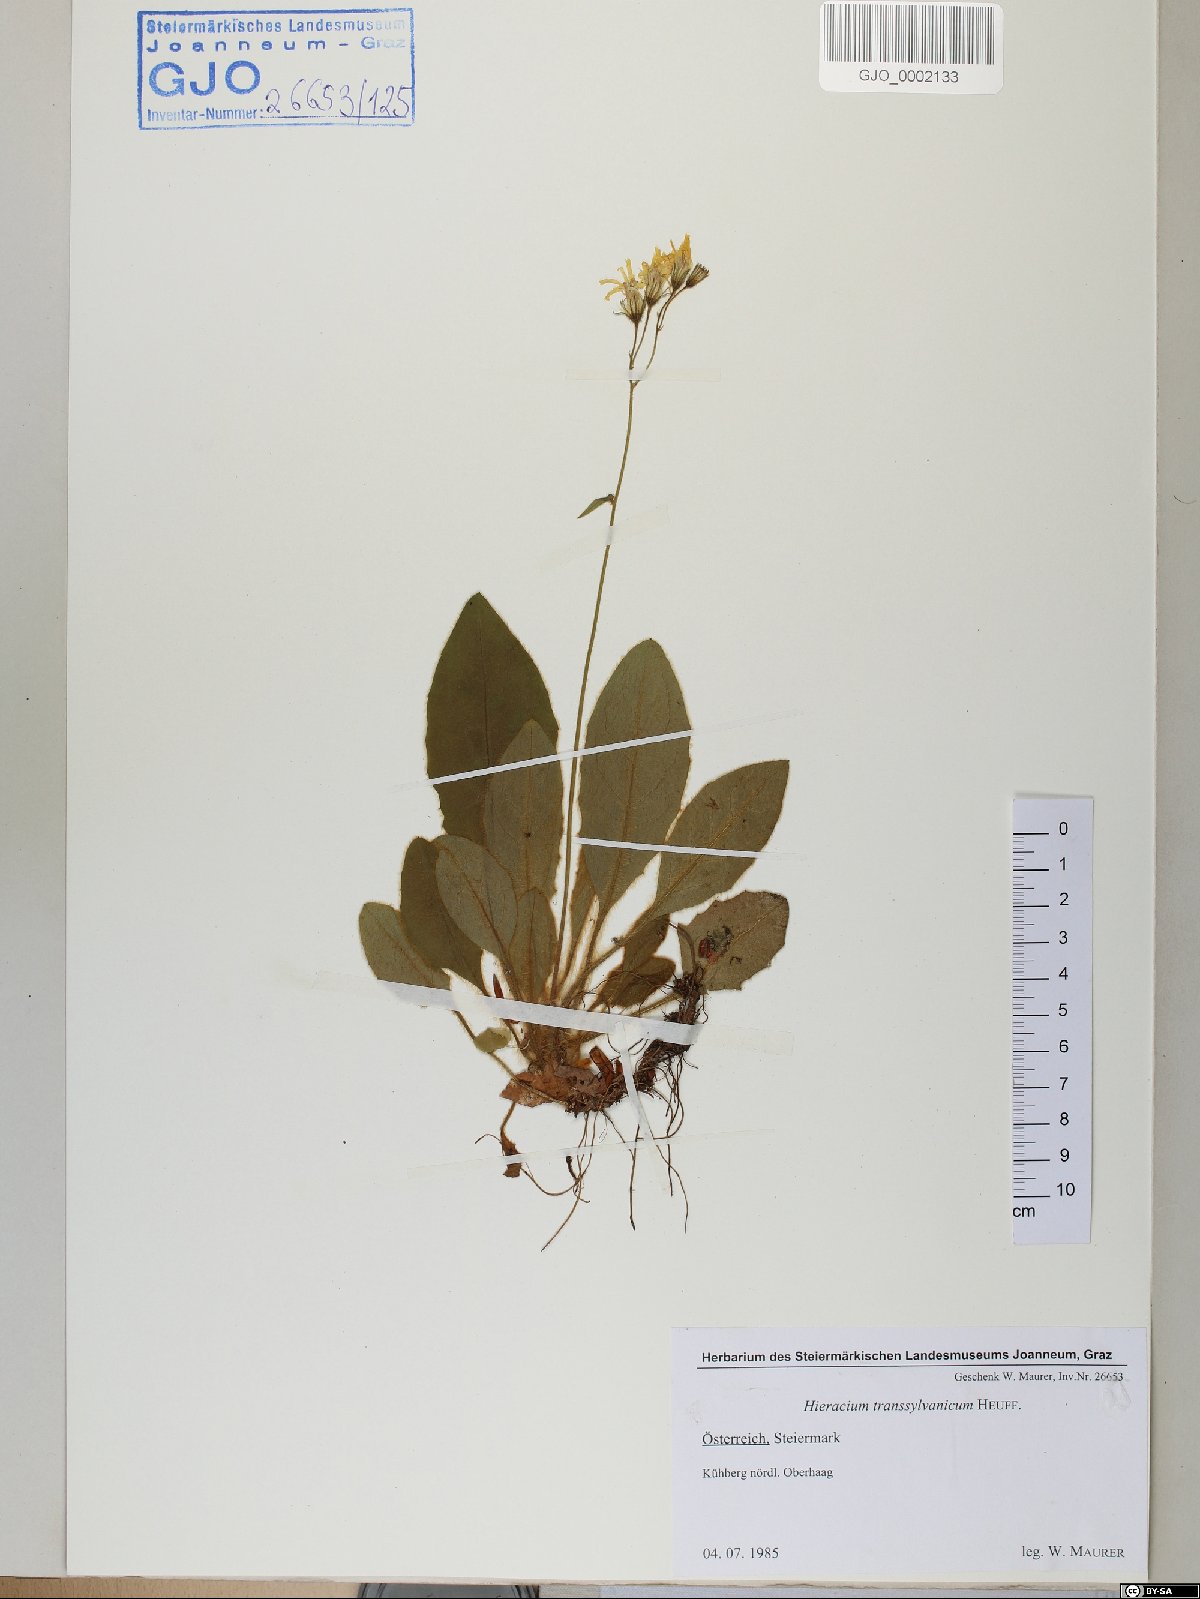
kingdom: Plantae
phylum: Tracheophyta
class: Magnoliopsida
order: Asterales
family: Asteraceae
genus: Hieracium
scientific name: Hieracium transylvanicum
